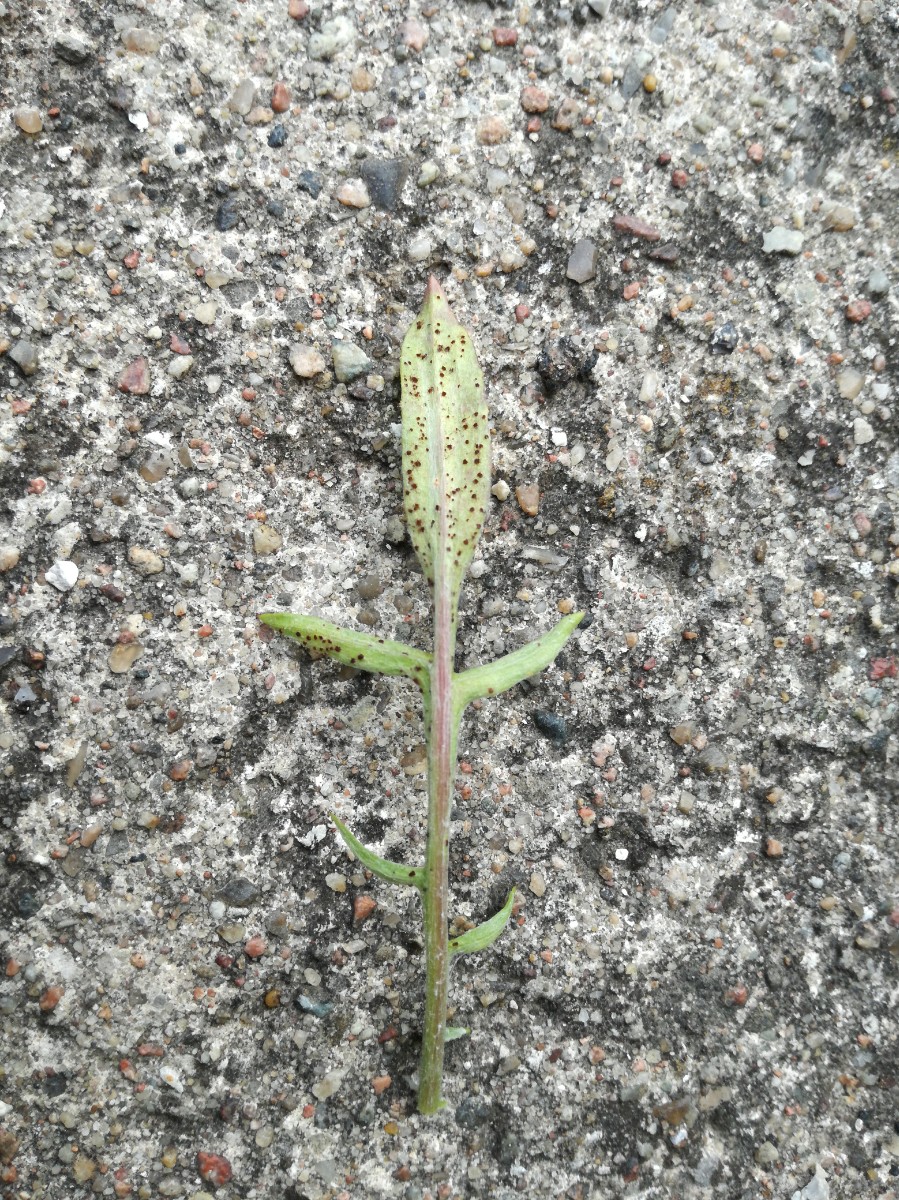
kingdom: Fungi
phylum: Basidiomycota
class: Pucciniomycetes
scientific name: Pucciniomycetes
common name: rustsvampeklassen
